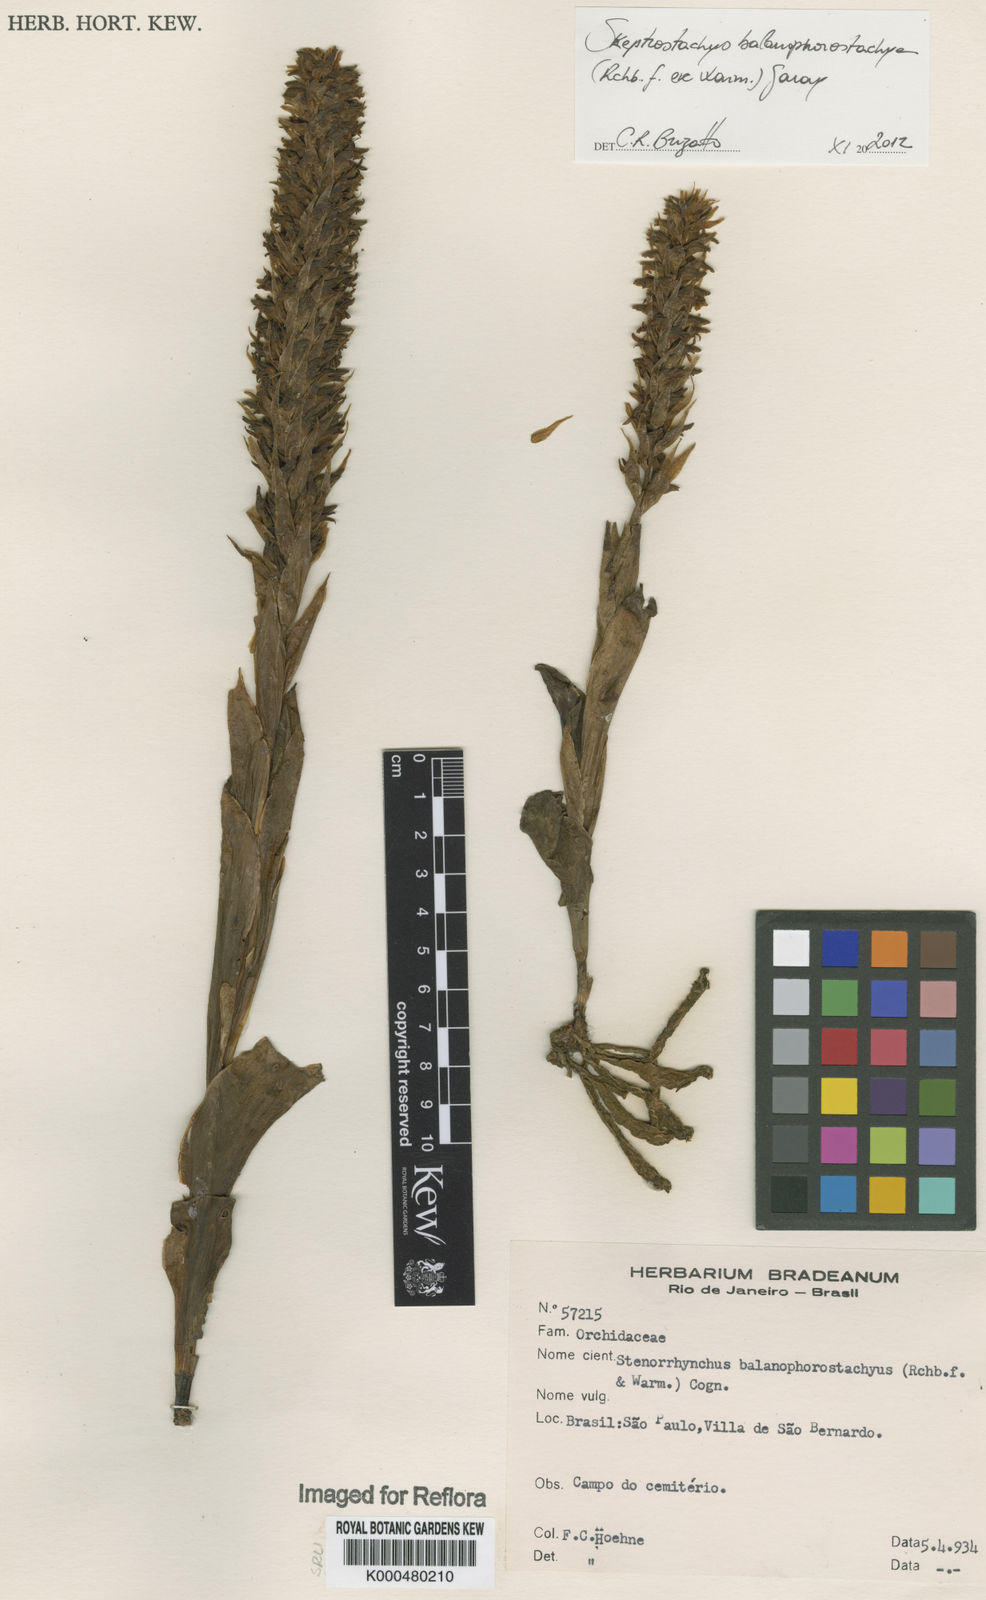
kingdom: Plantae
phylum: Tracheophyta
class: Liliopsida
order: Asparagales
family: Orchidaceae
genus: Skeptrostachys
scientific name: Skeptrostachys arechavaletanii
